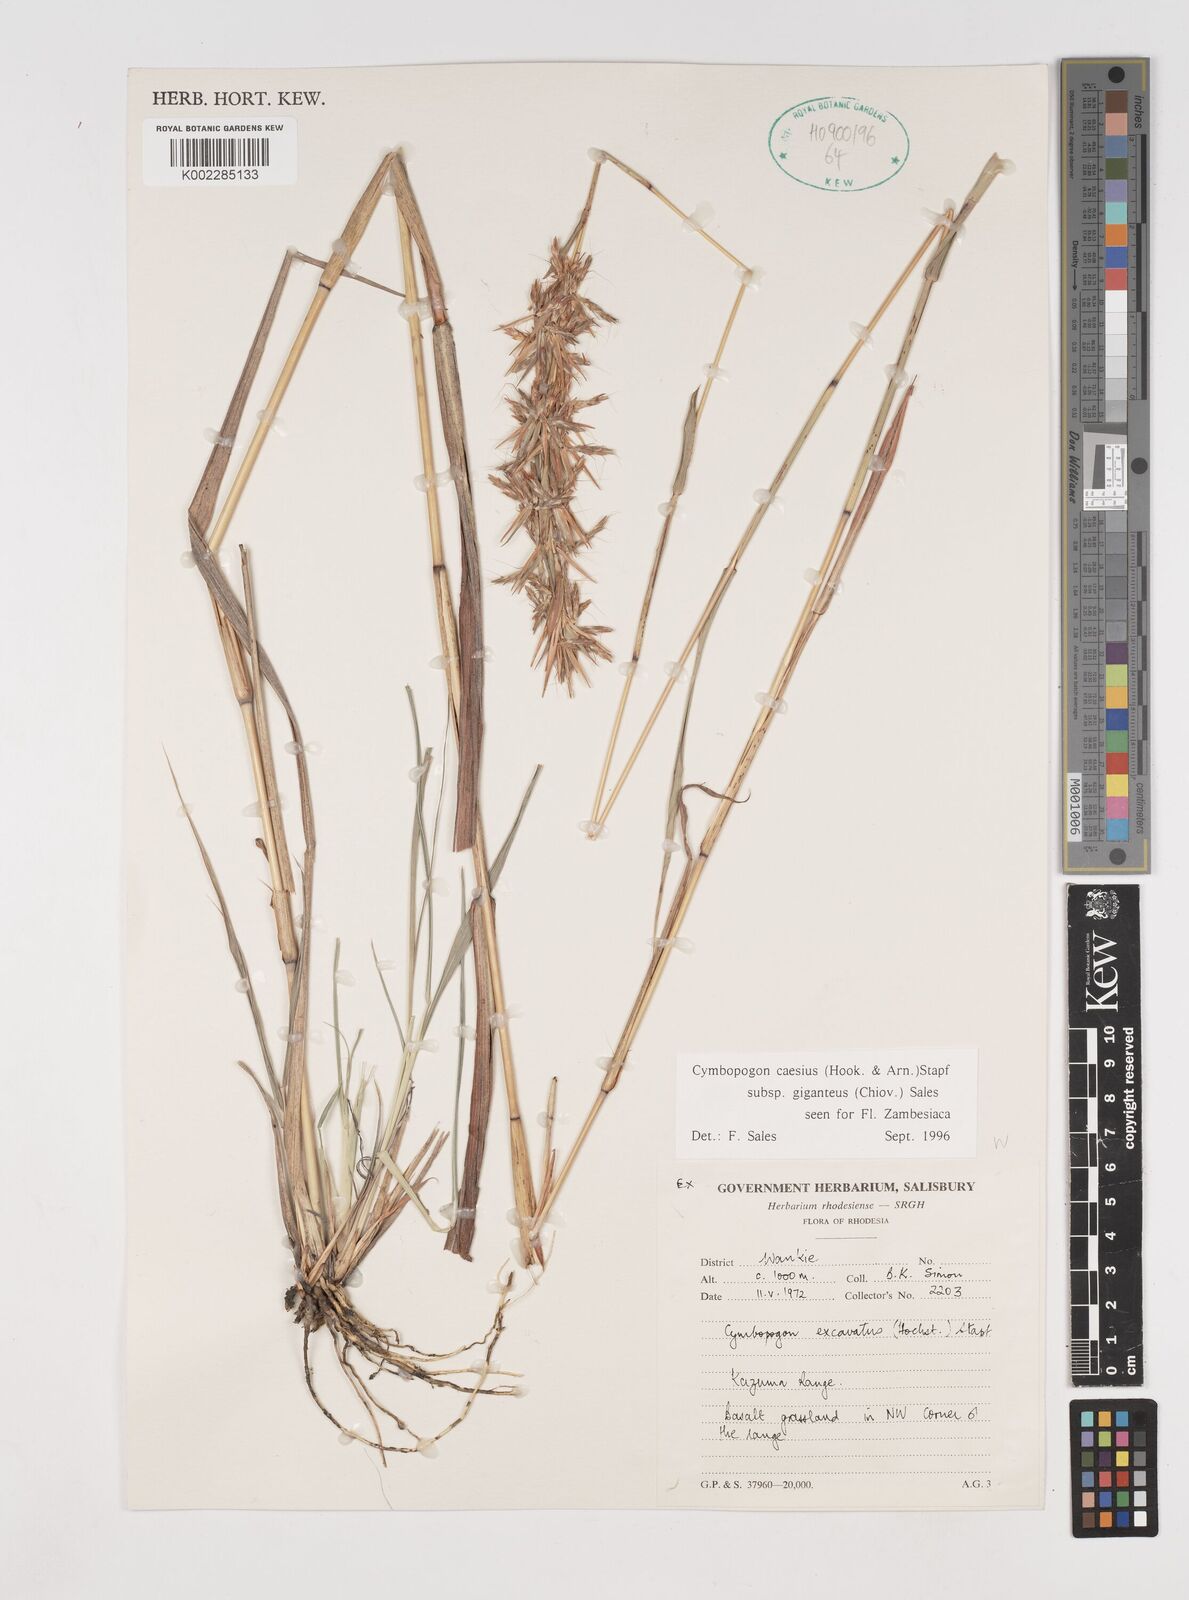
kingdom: Plantae
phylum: Tracheophyta
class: Liliopsida
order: Poales
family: Poaceae
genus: Cymbopogon
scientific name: Cymbopogon giganteus
